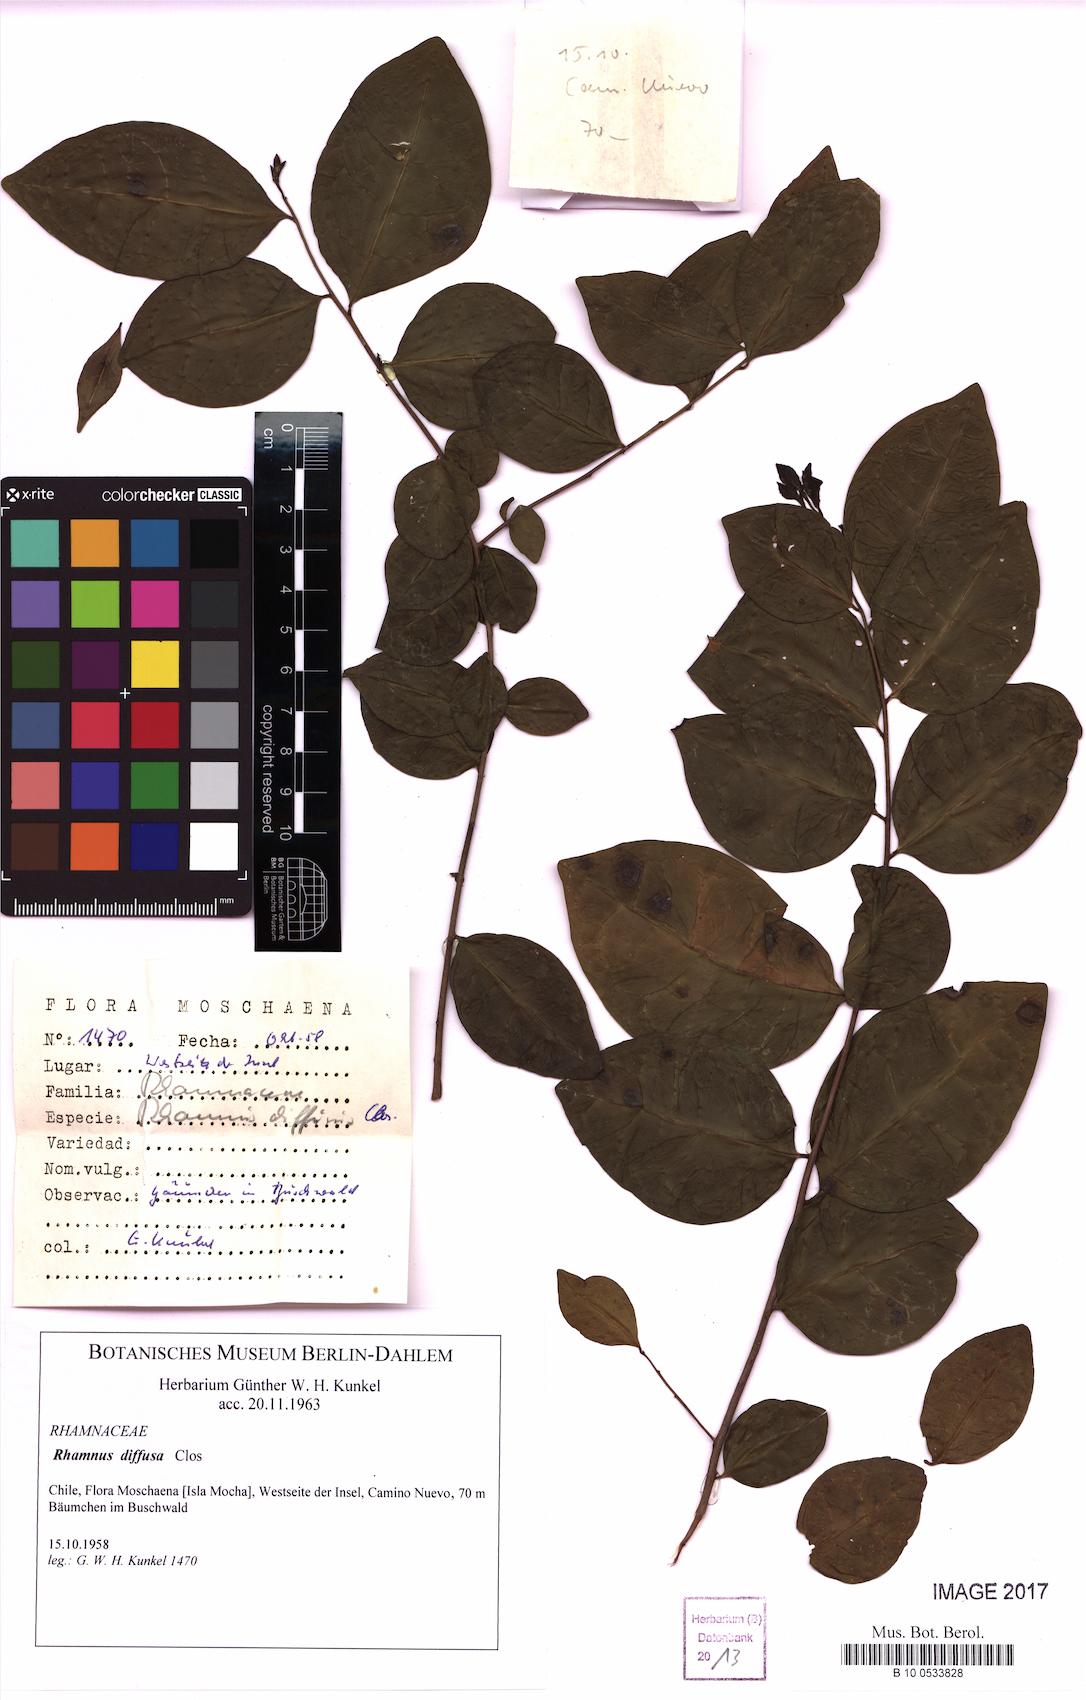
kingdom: Plantae
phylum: Tracheophyta
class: Magnoliopsida
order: Rosales
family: Rhamnaceae
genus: Condalia
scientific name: Condalia maytenoides
